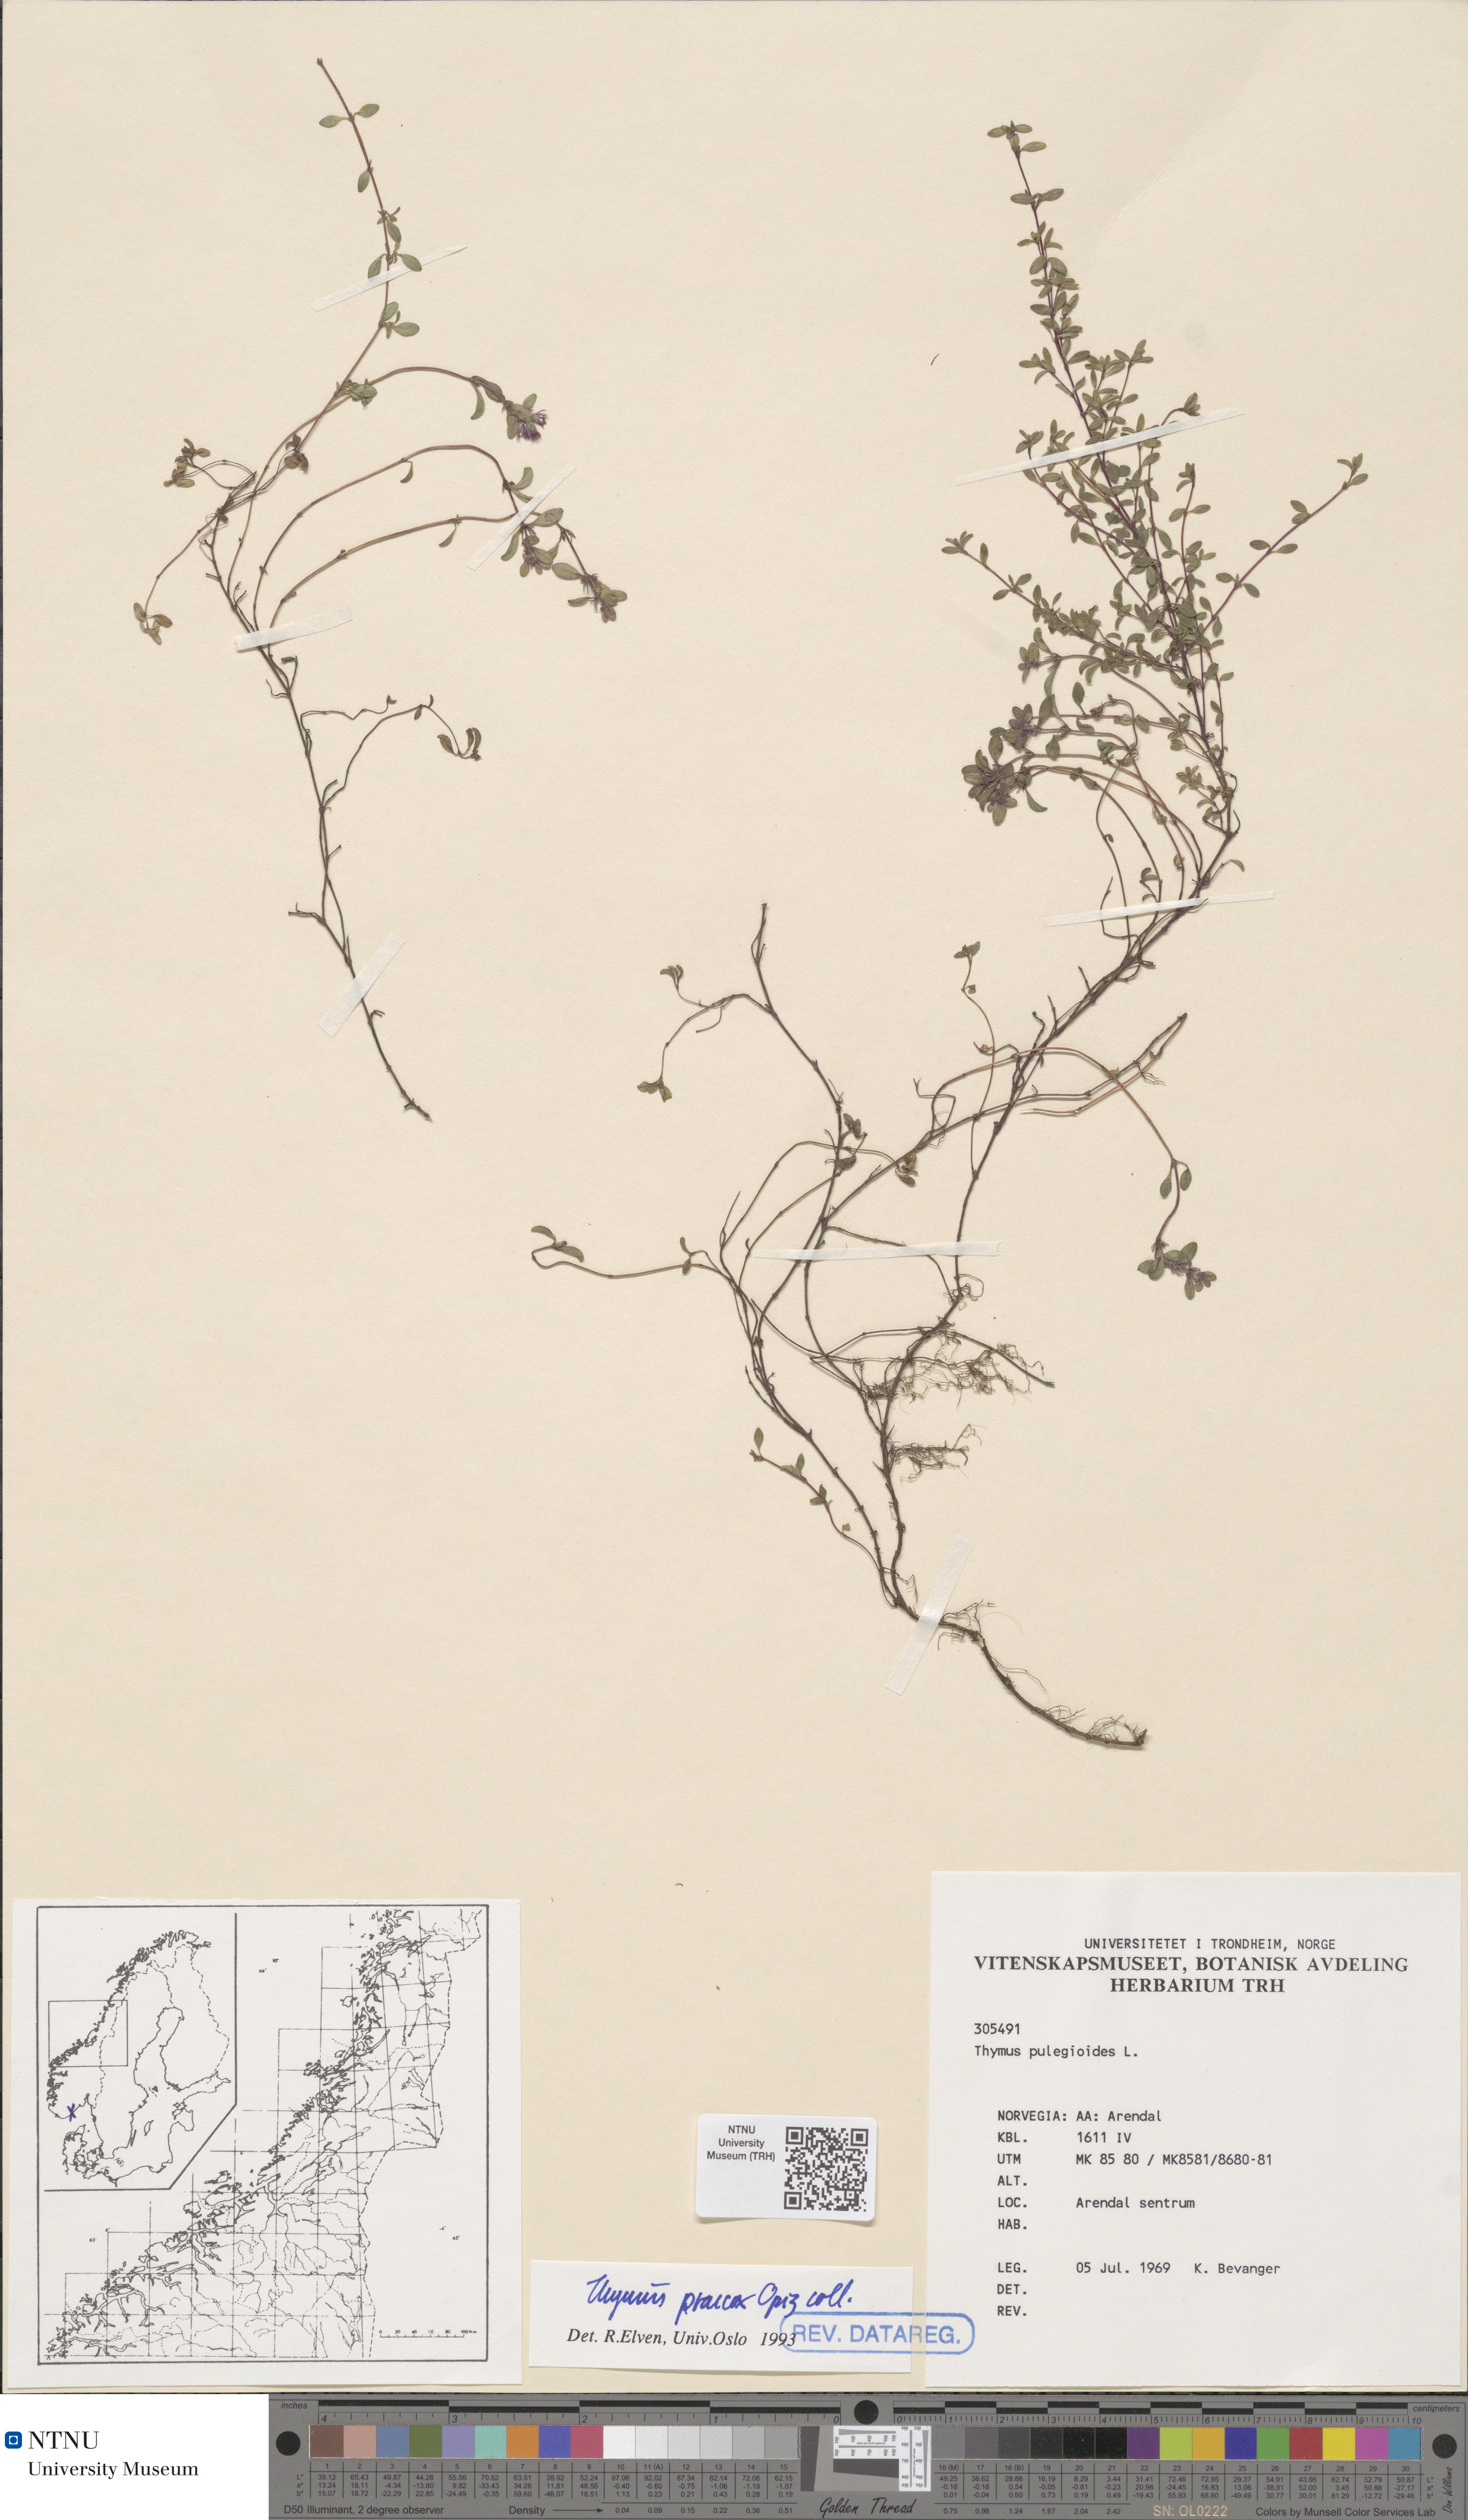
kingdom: Plantae
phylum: Tracheophyta
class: Magnoliopsida
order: Lamiales
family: Lamiaceae
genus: Thymus
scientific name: Thymus praecox
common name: Wild thyme
